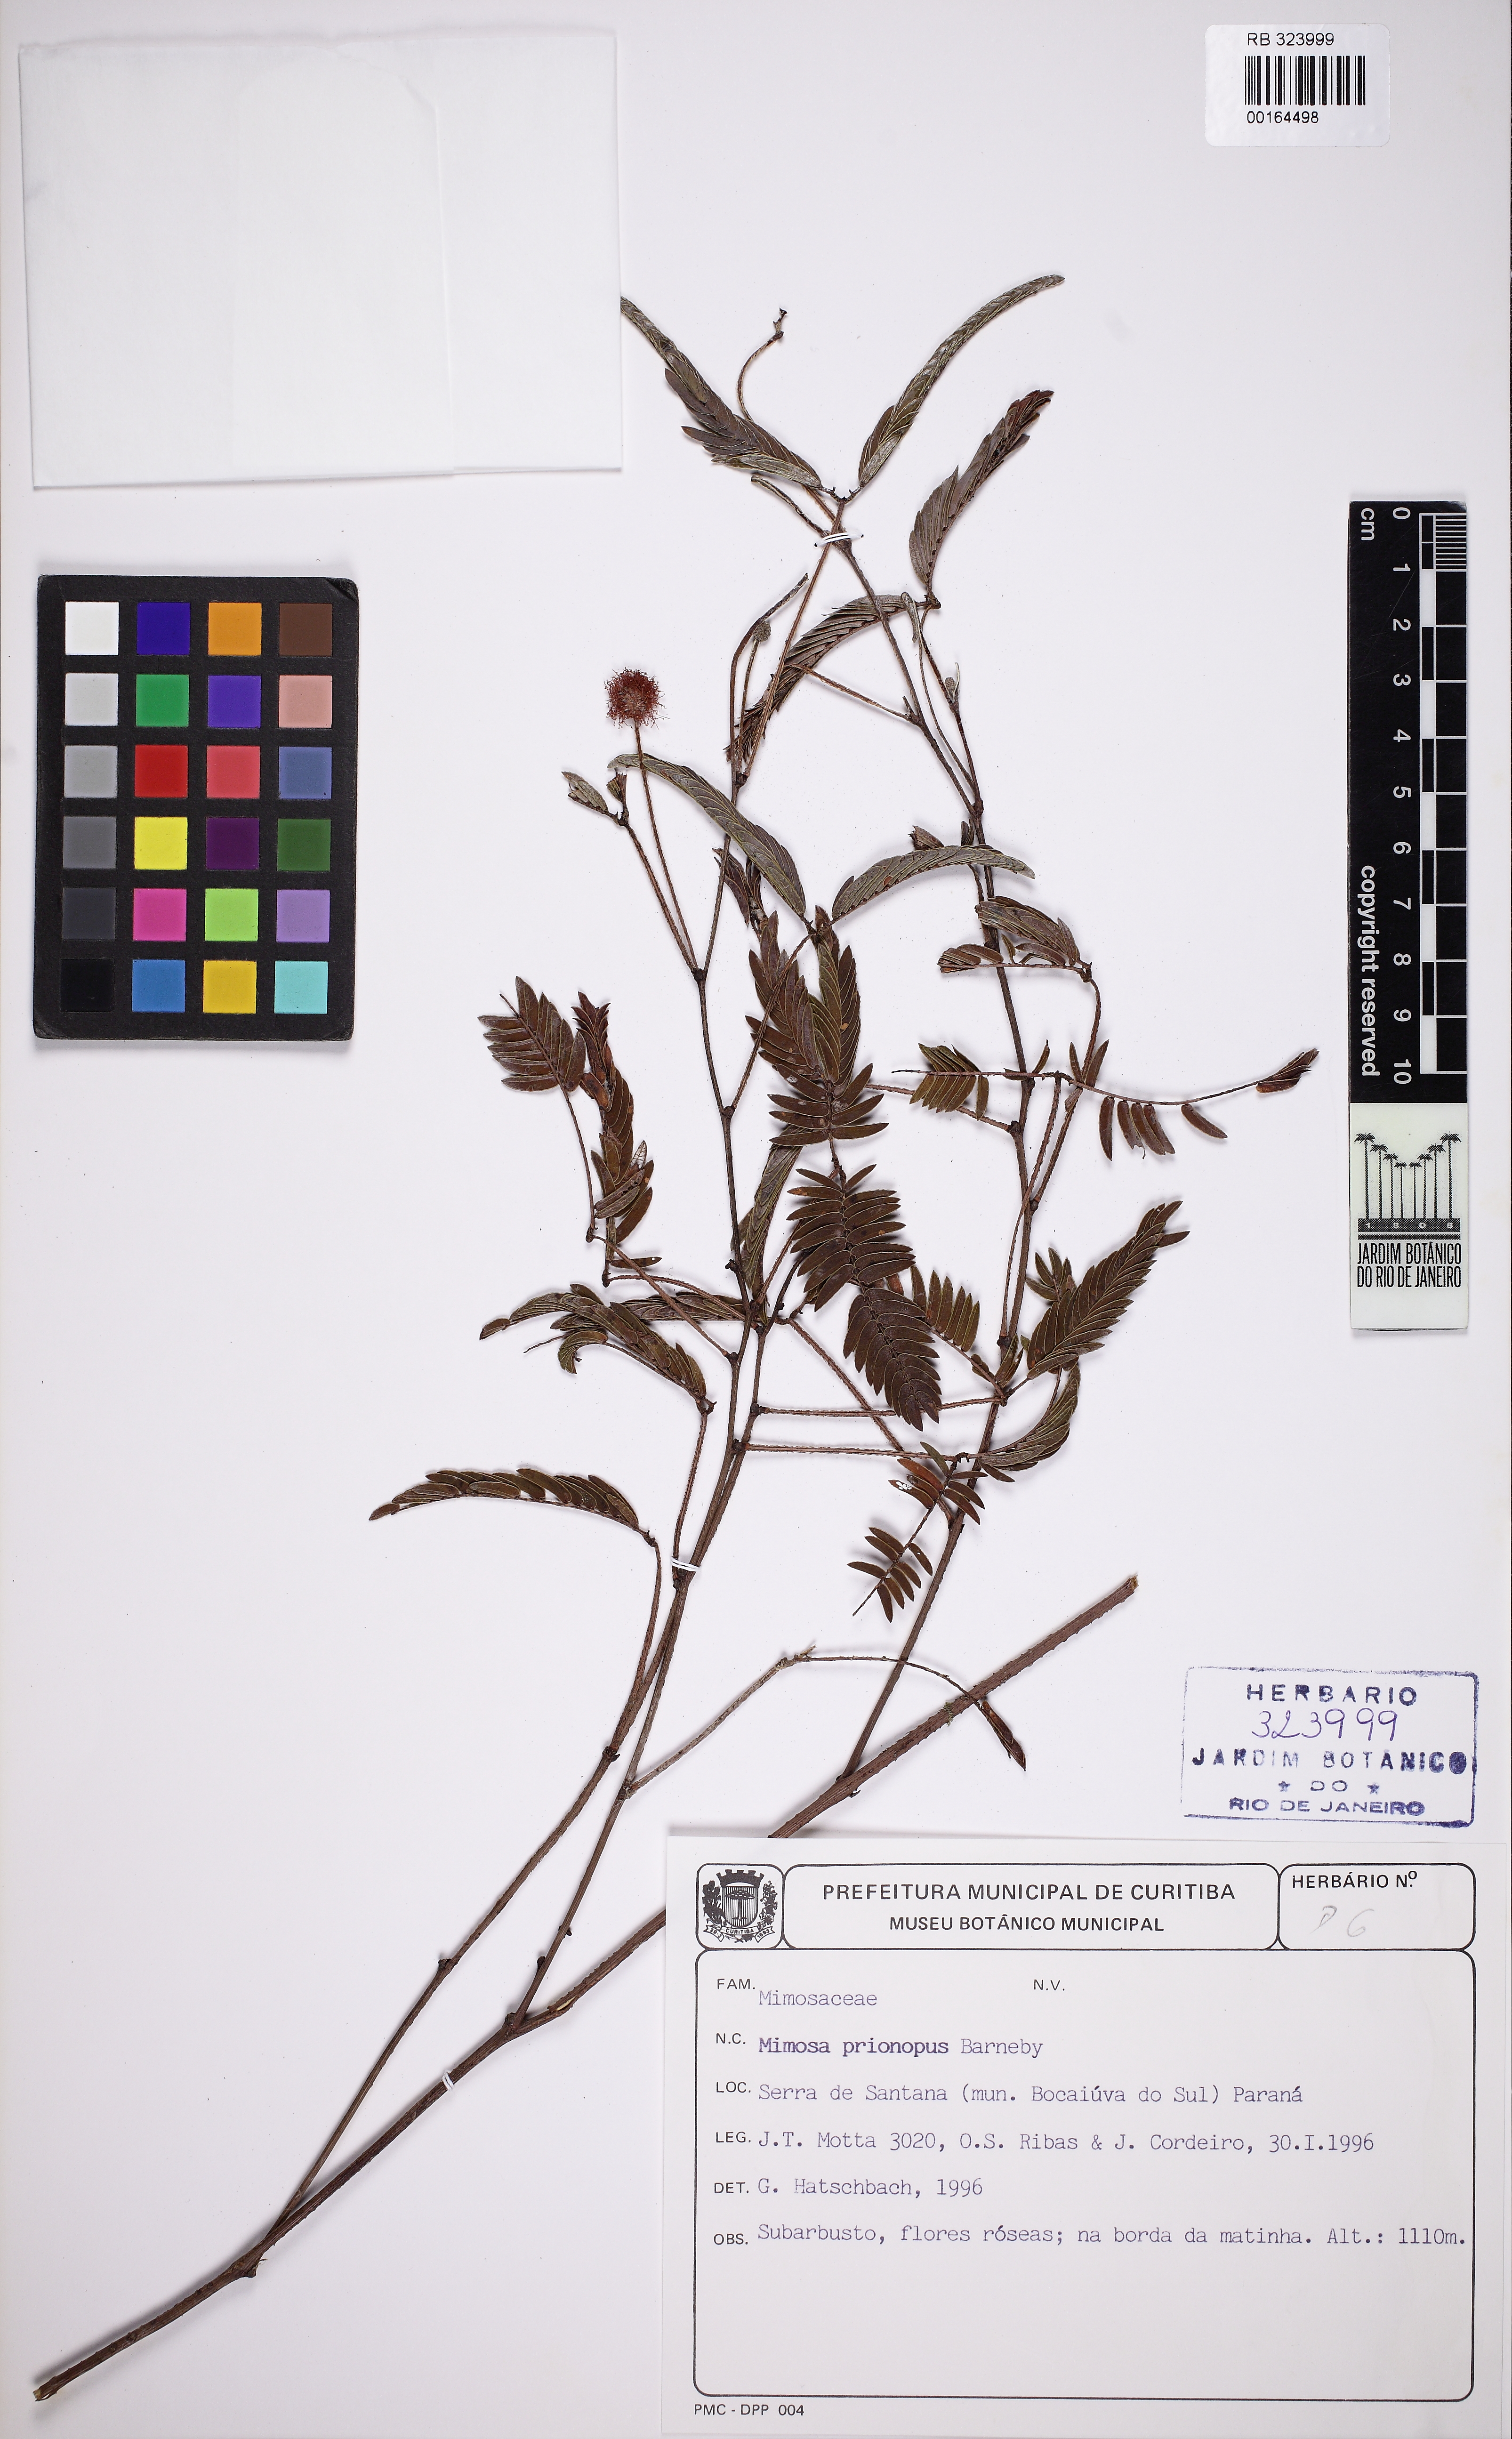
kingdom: Plantae
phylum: Tracheophyta
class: Magnoliopsida
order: Fabales
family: Fabaceae
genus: Mimosa
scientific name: Mimosa prionopus
